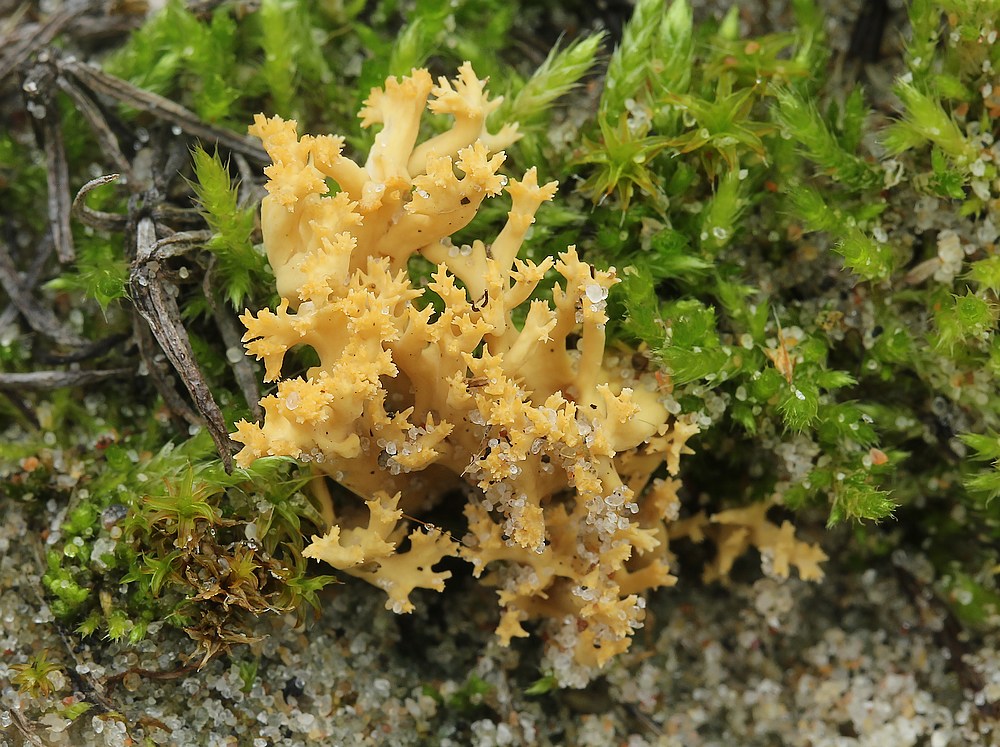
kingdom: Fungi
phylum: Basidiomycota
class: Agaricomycetes
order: Gomphales
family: Gomphaceae
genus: Phaeoclavulina
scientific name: Phaeoclavulina flaccida
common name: spinkel koralsvamp
